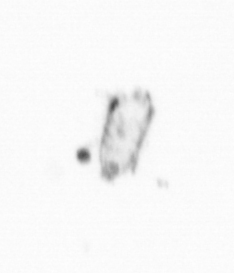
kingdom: Chromista
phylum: Ochrophyta
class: Bacillariophyceae
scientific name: Bacillariophyceae
